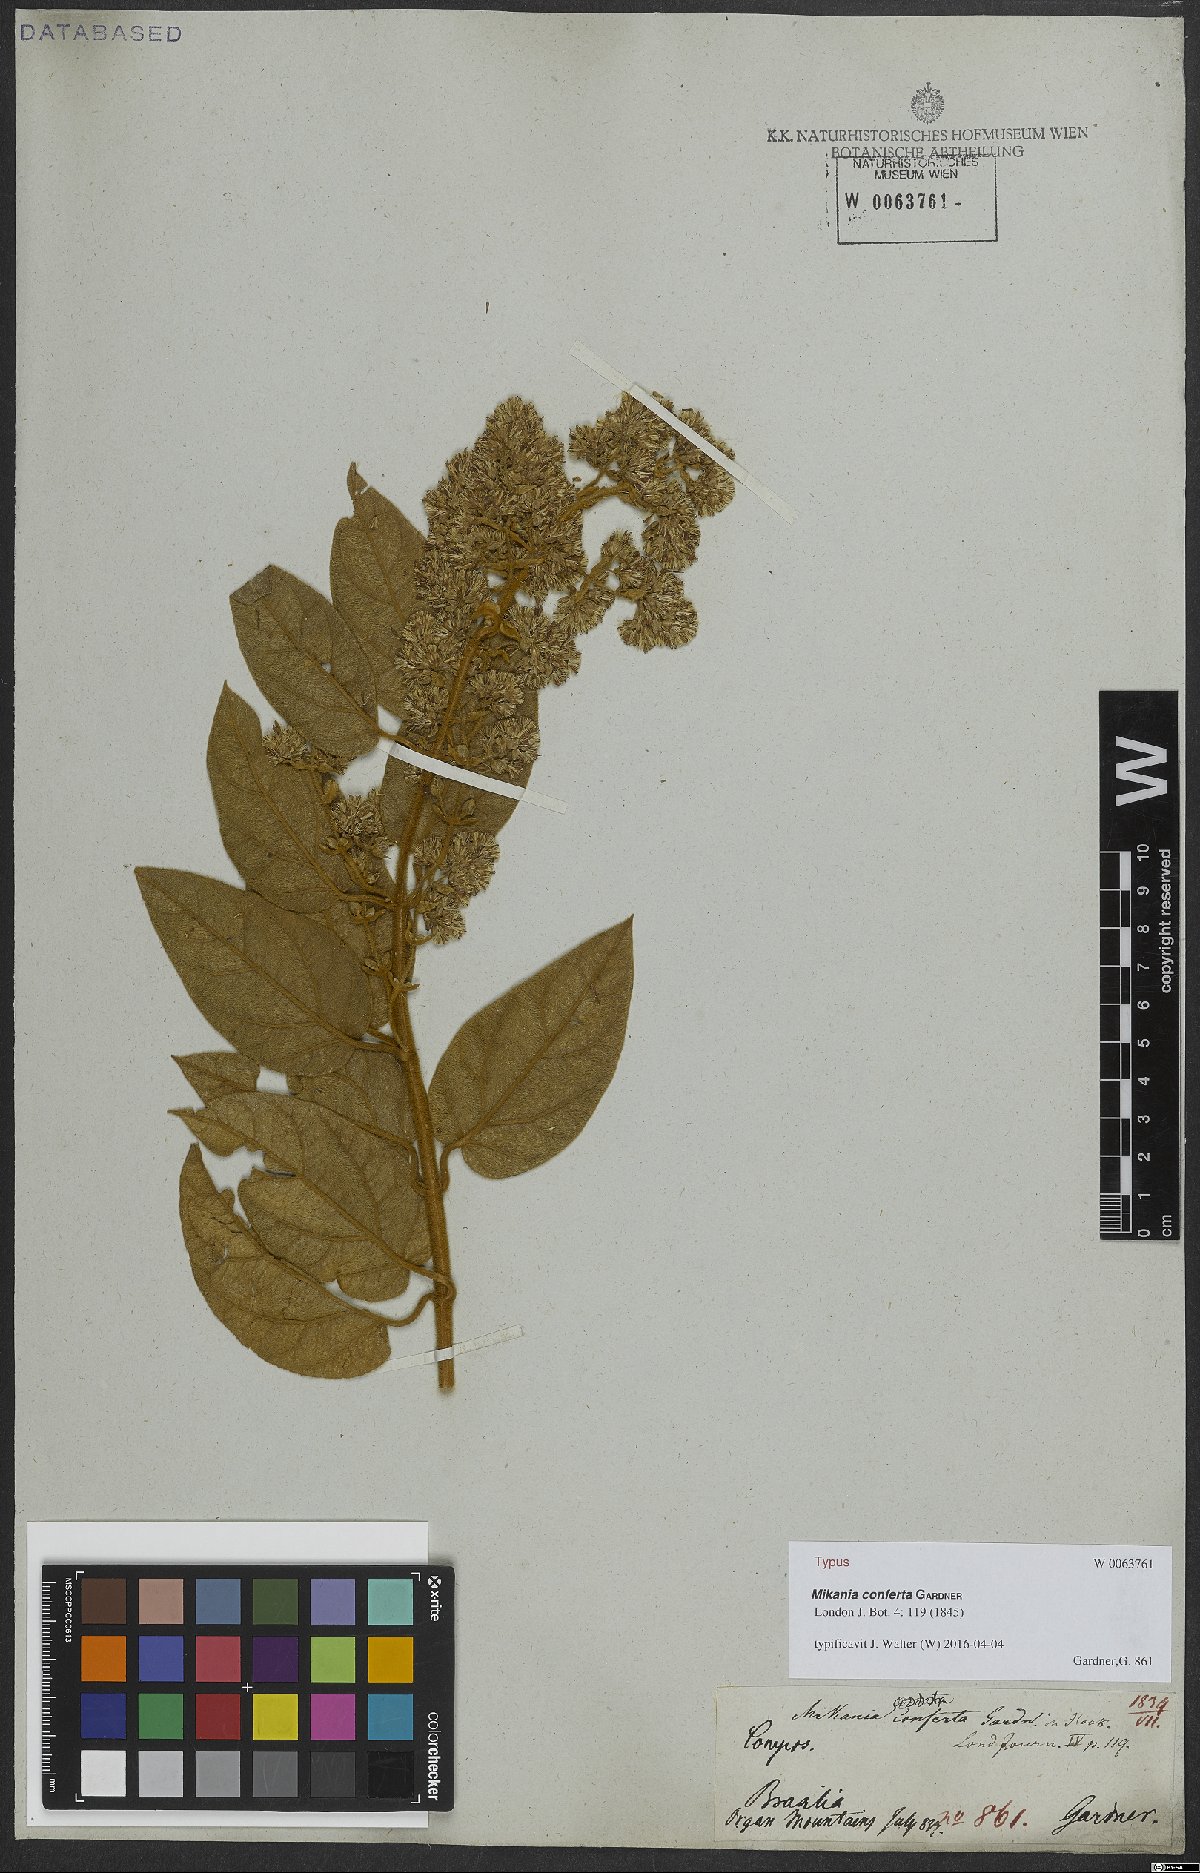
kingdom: Plantae
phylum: Tracheophyta
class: Magnoliopsida
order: Asterales
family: Asteraceae
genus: Mikania
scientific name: Mikania conferta
